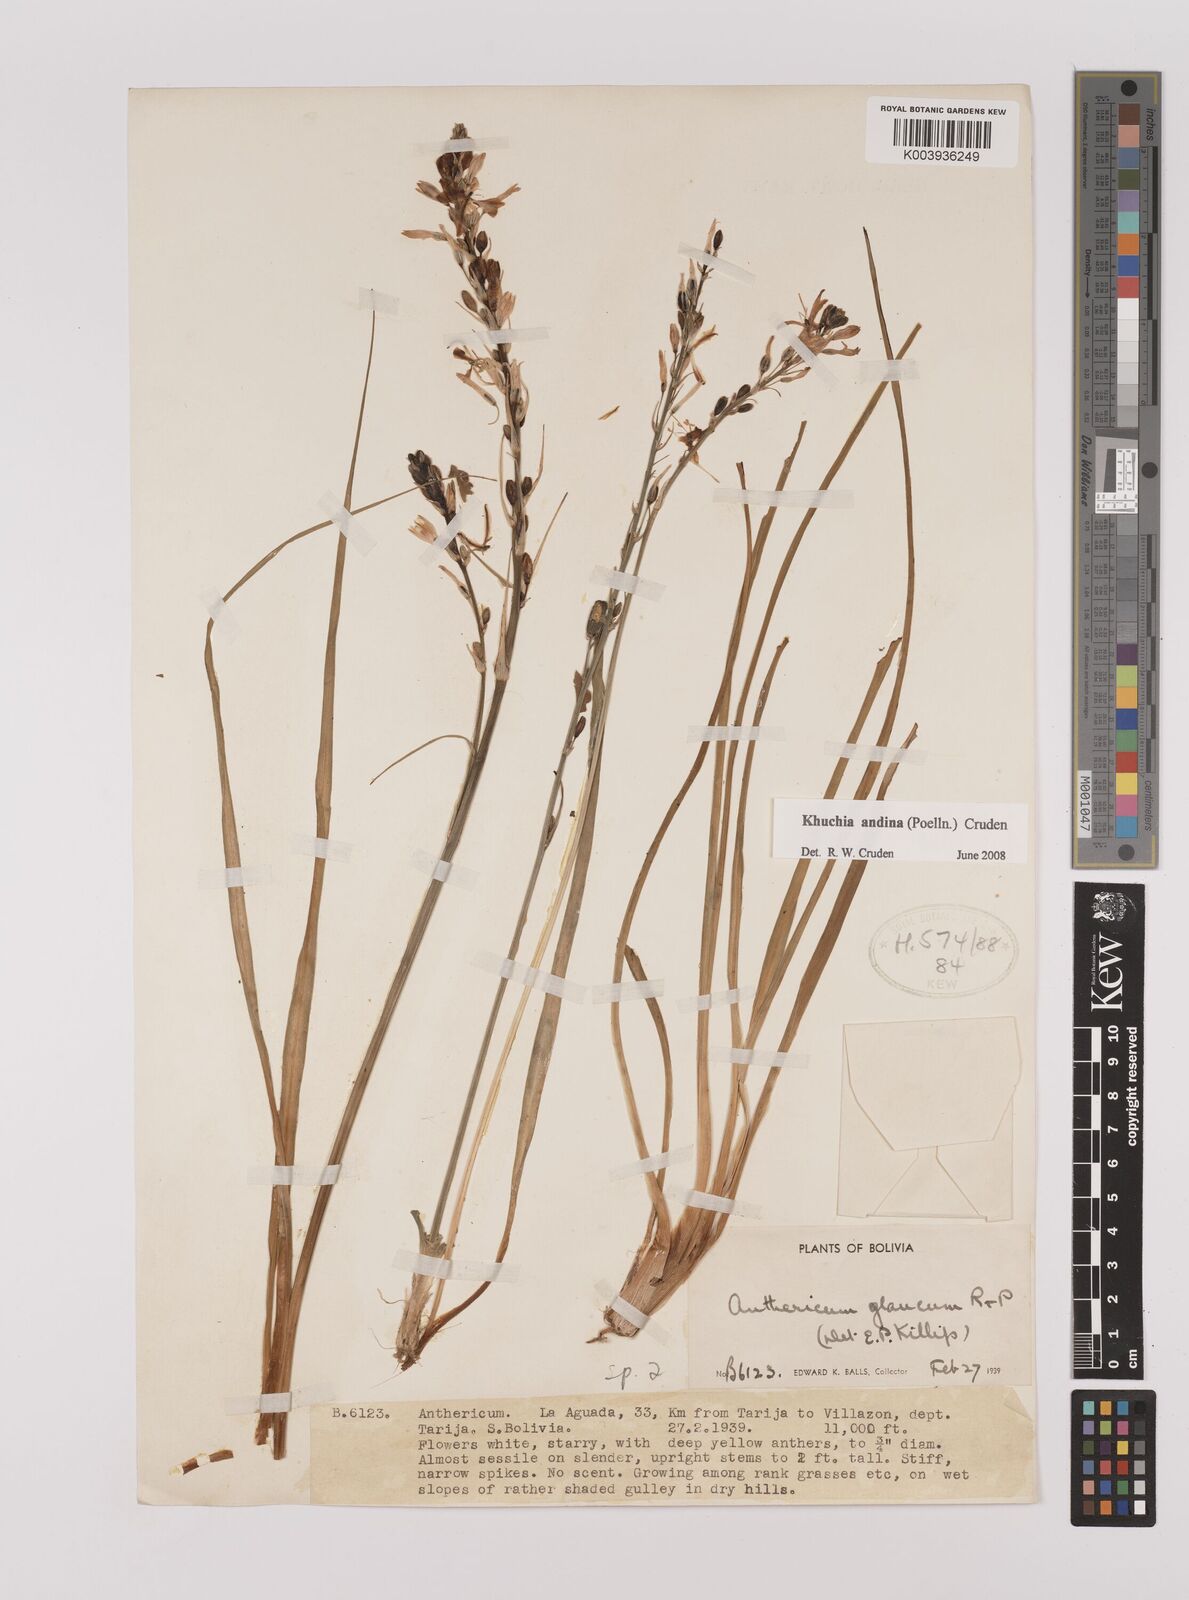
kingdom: Plantae
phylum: Tracheophyta
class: Liliopsida
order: Asparagales
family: Asparagaceae
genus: Echeandia
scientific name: Echeandia
